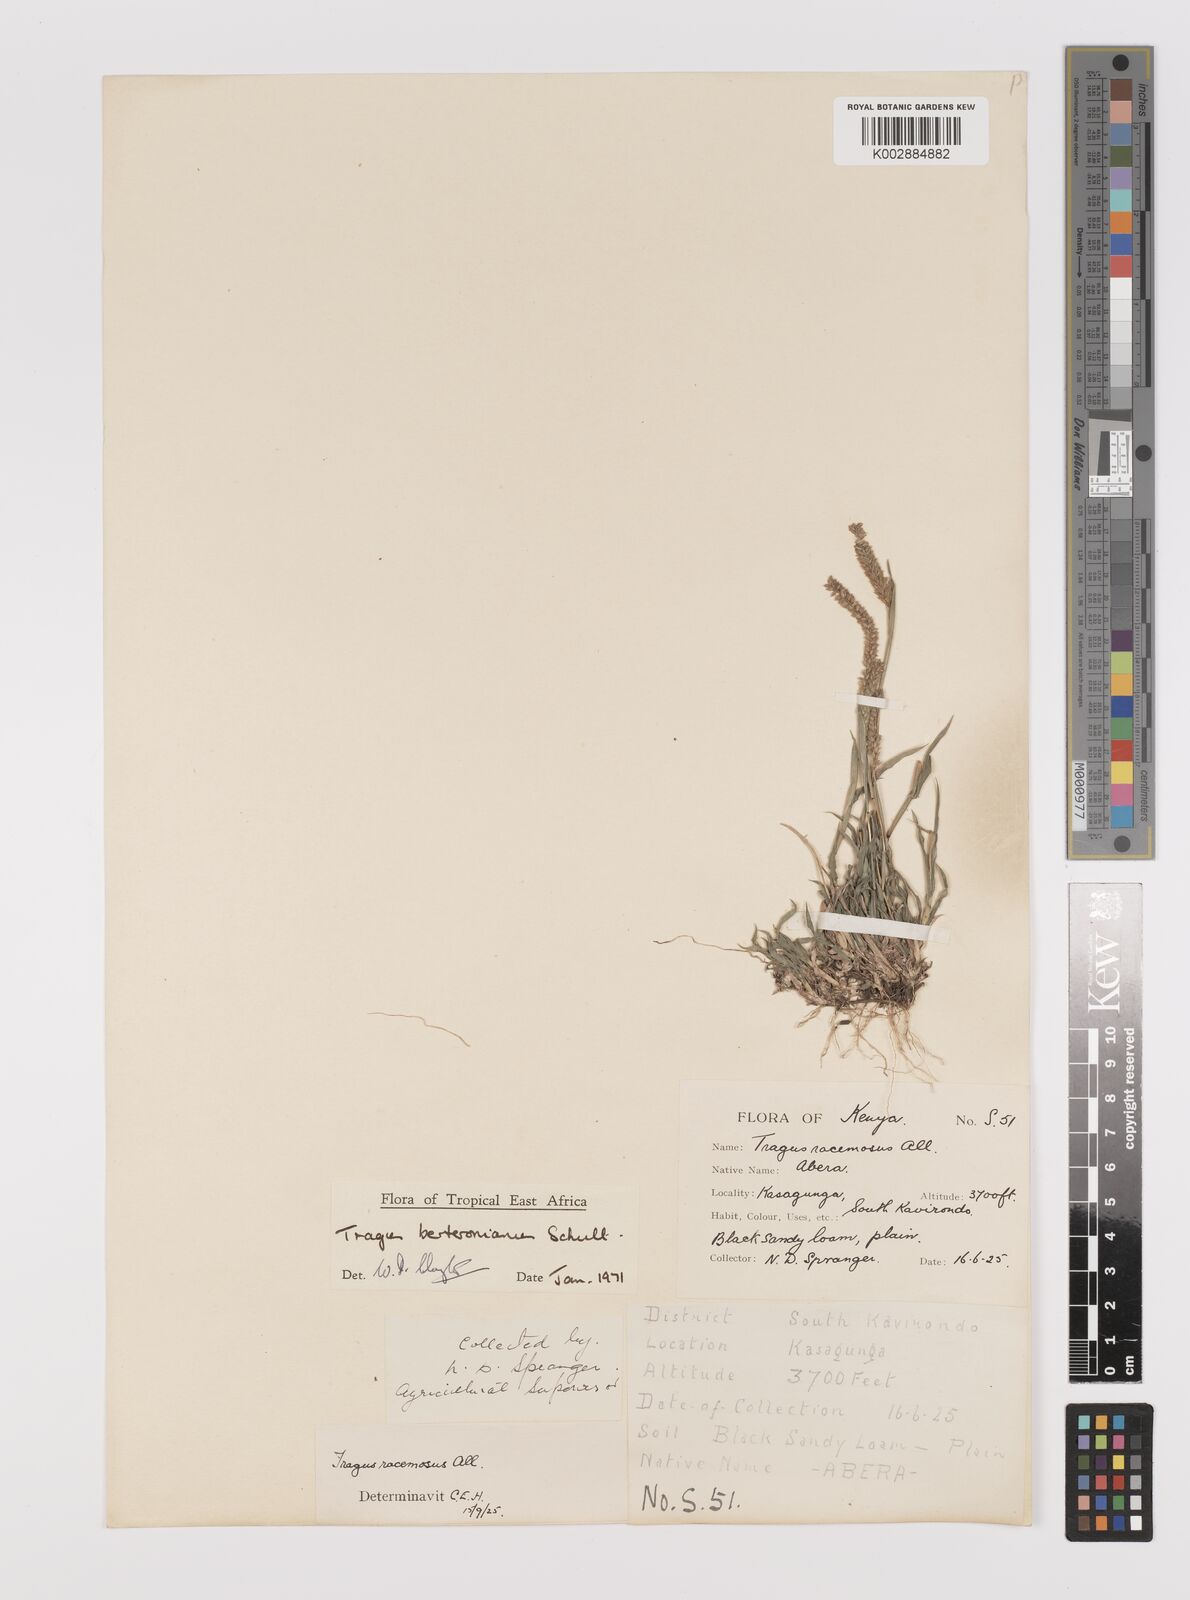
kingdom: Plantae
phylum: Tracheophyta
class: Liliopsida
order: Poales
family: Poaceae
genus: Tragus
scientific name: Tragus berteronianus
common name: African bur-grass
